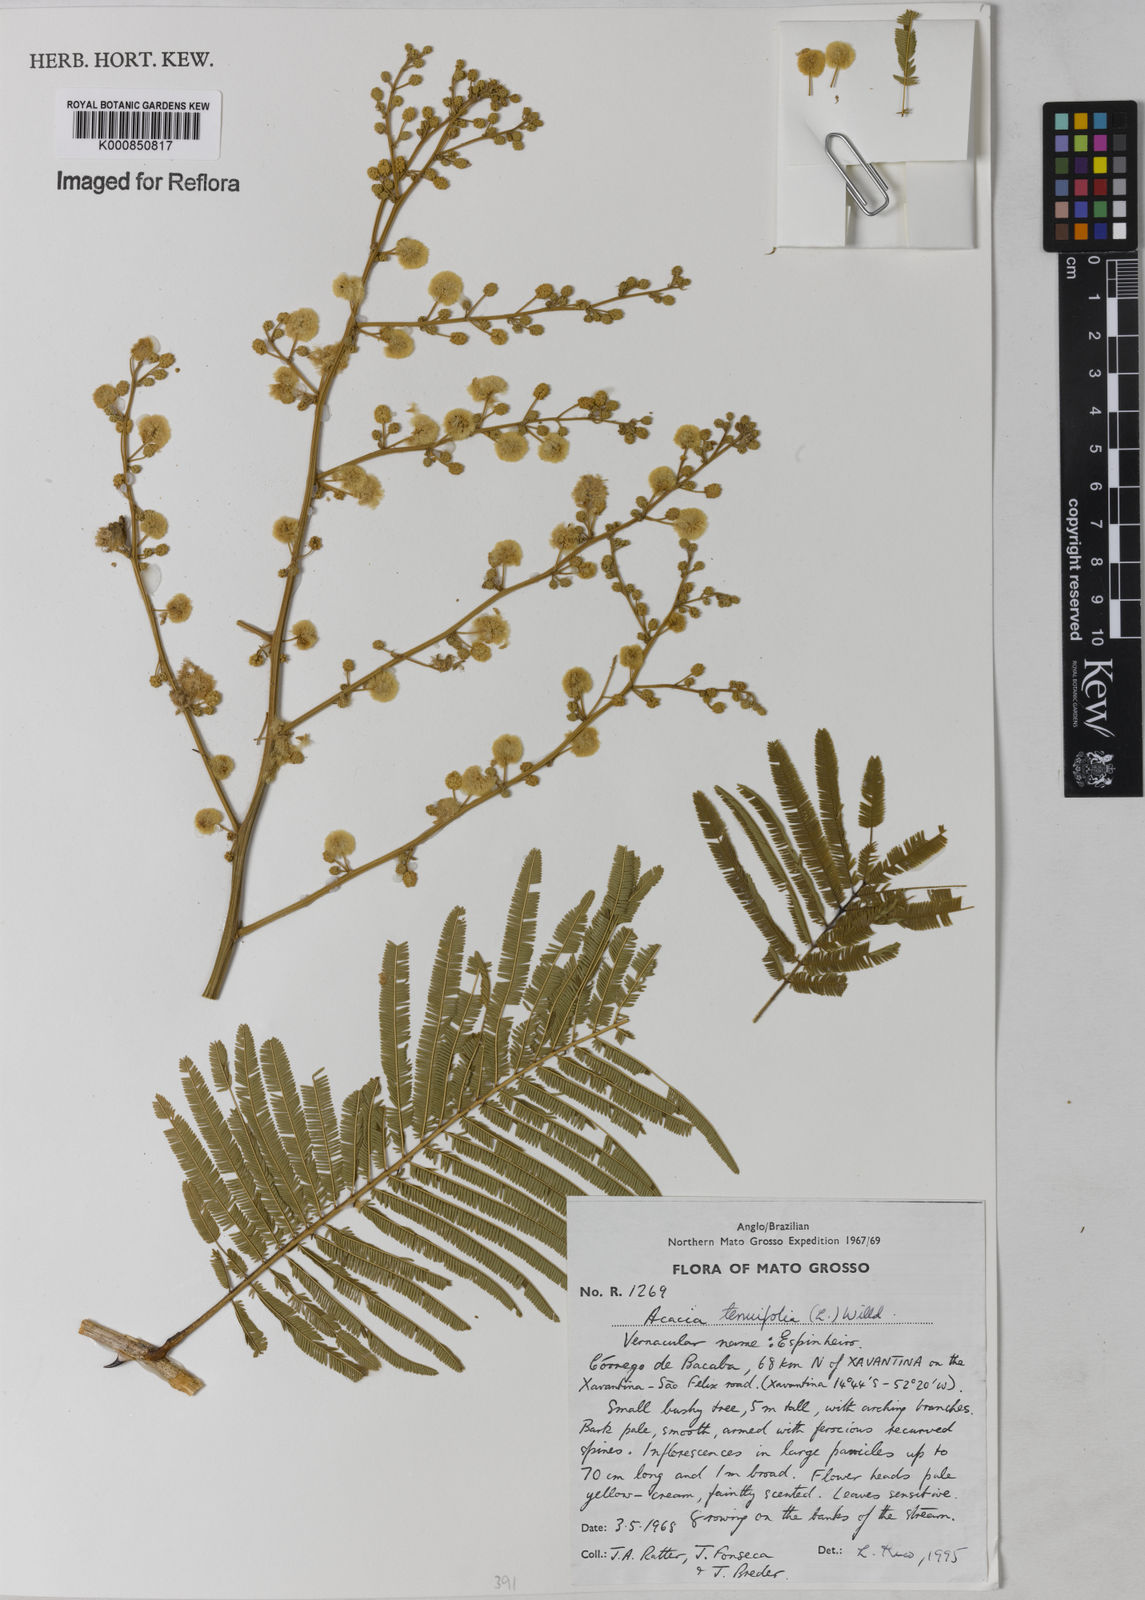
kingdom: Plantae
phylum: Tracheophyta
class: Magnoliopsida
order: Fabales
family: Fabaceae
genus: Senegalia
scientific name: Senegalia tenuifolia
